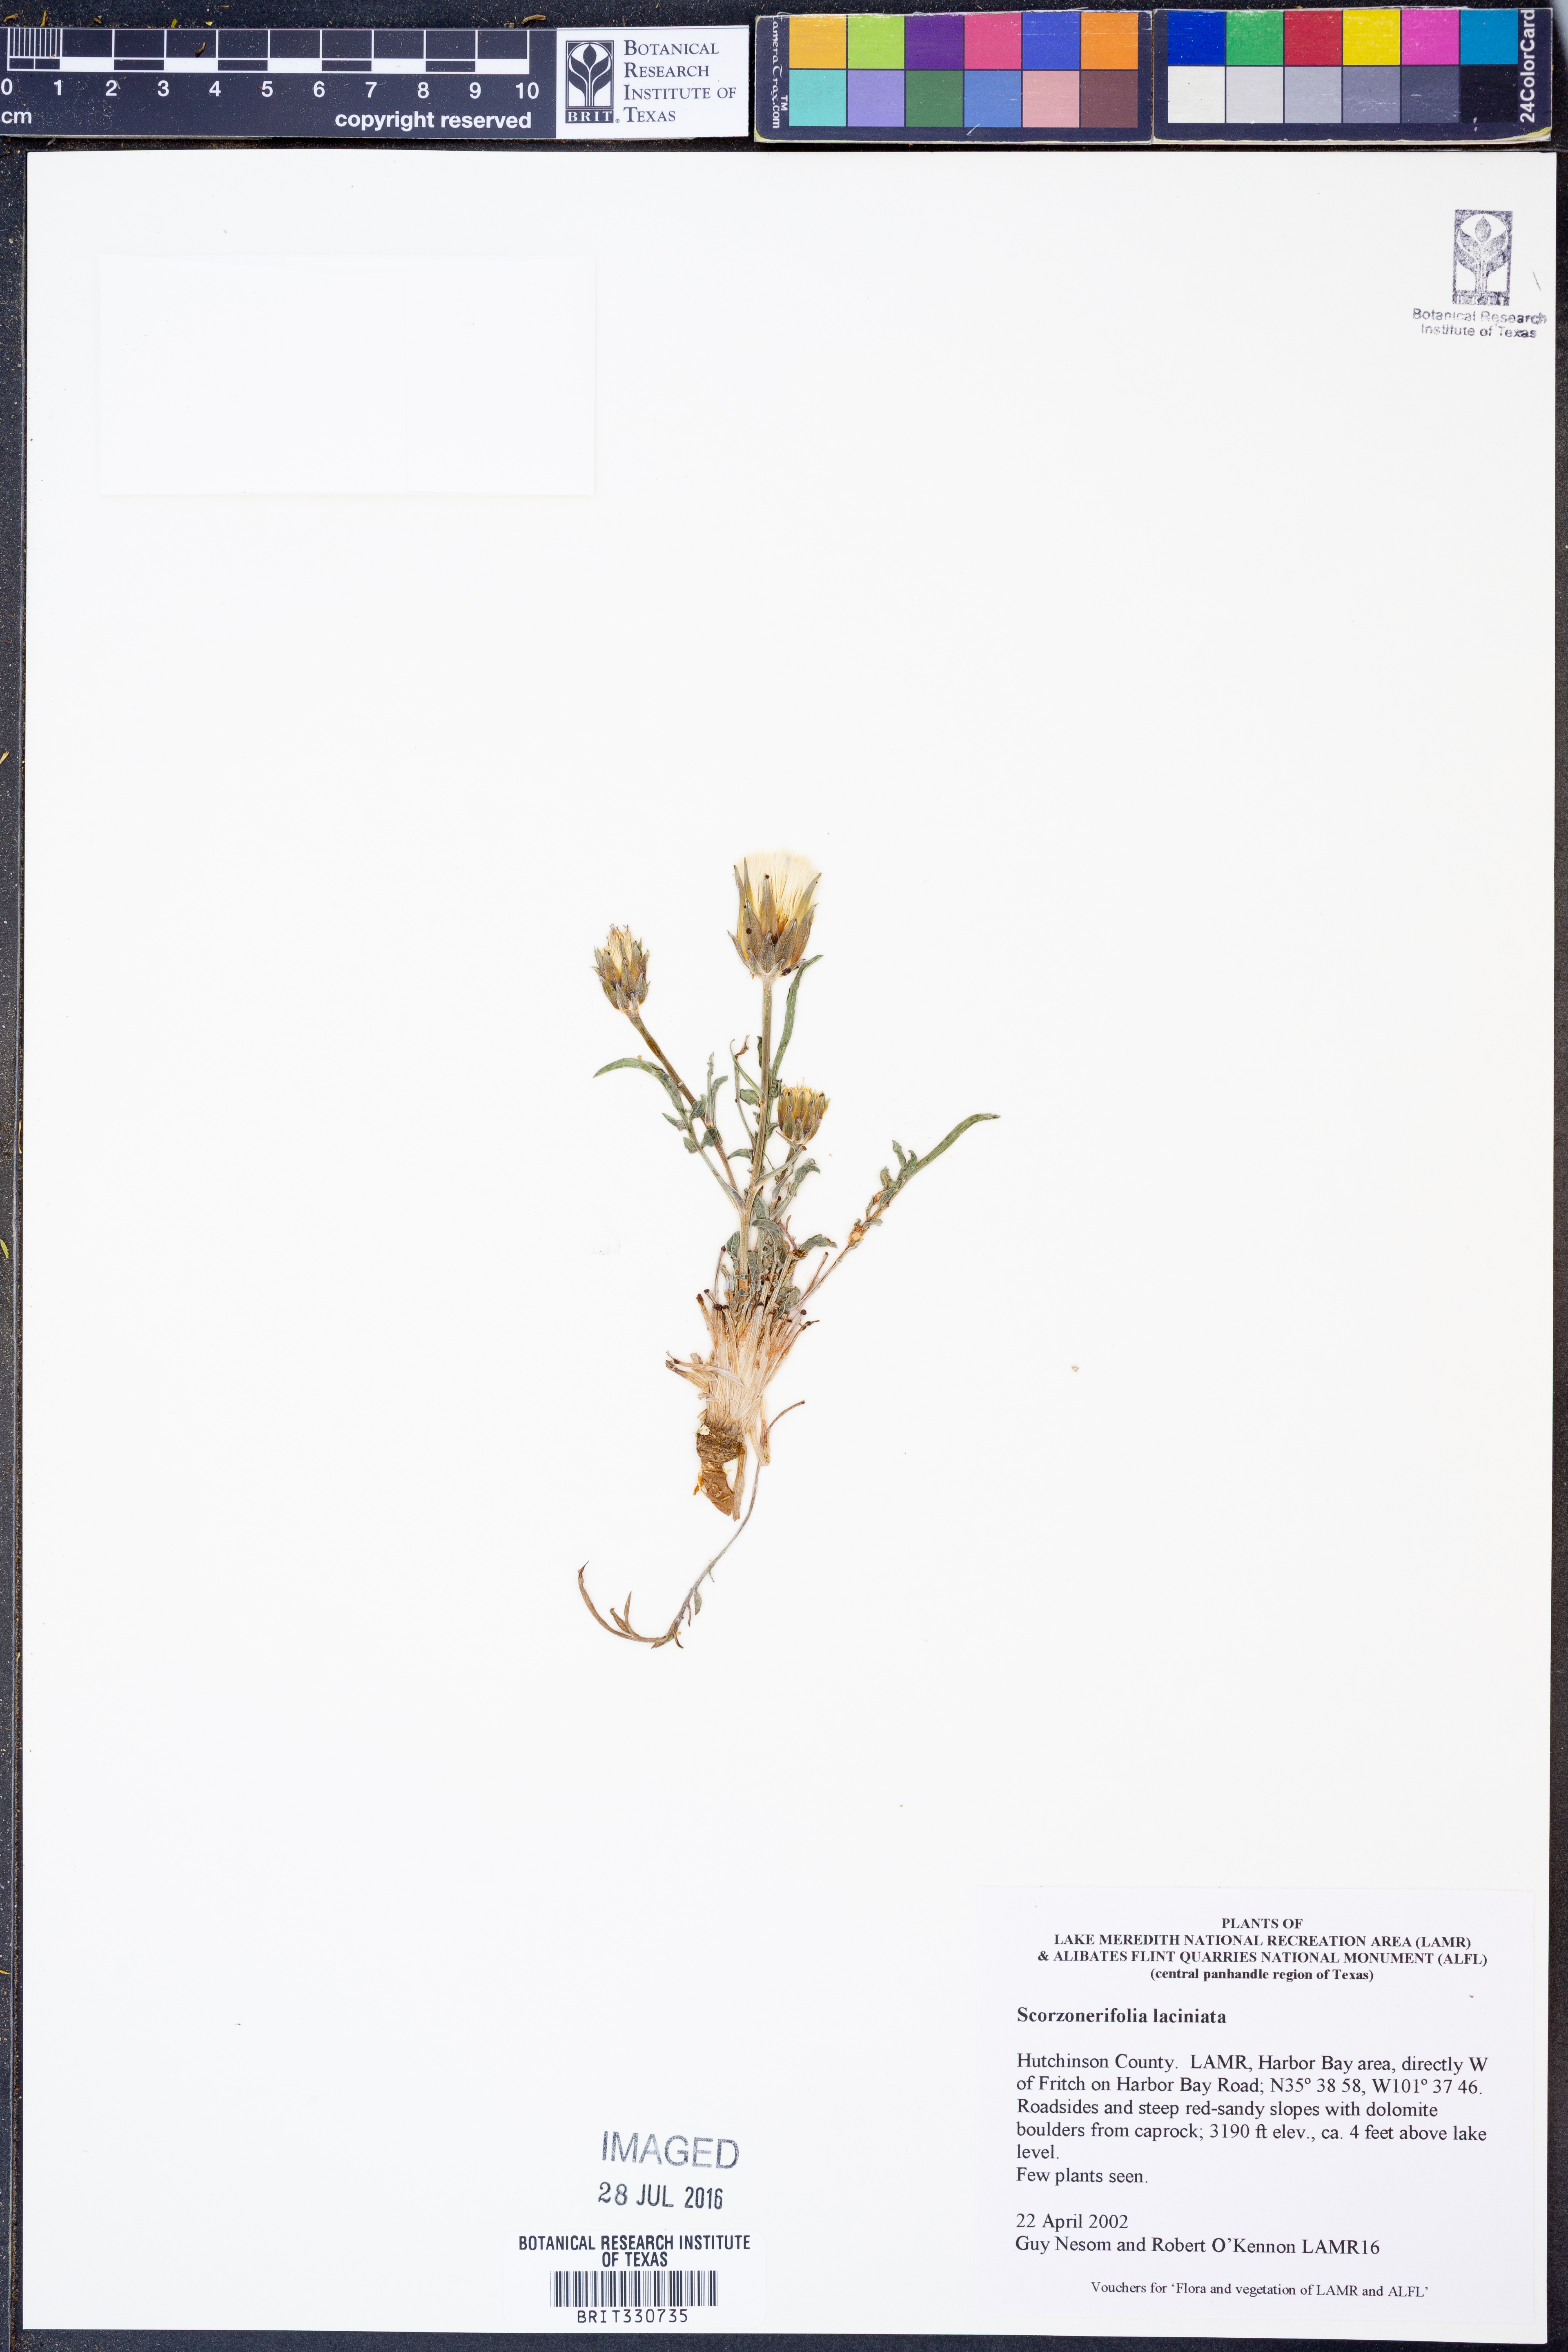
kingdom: Plantae
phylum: Tracheophyta
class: Magnoliopsida
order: Asterales
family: Asteraceae
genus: Scorzonera
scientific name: Scorzonera laciniata
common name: Cutleaf vipergrass
